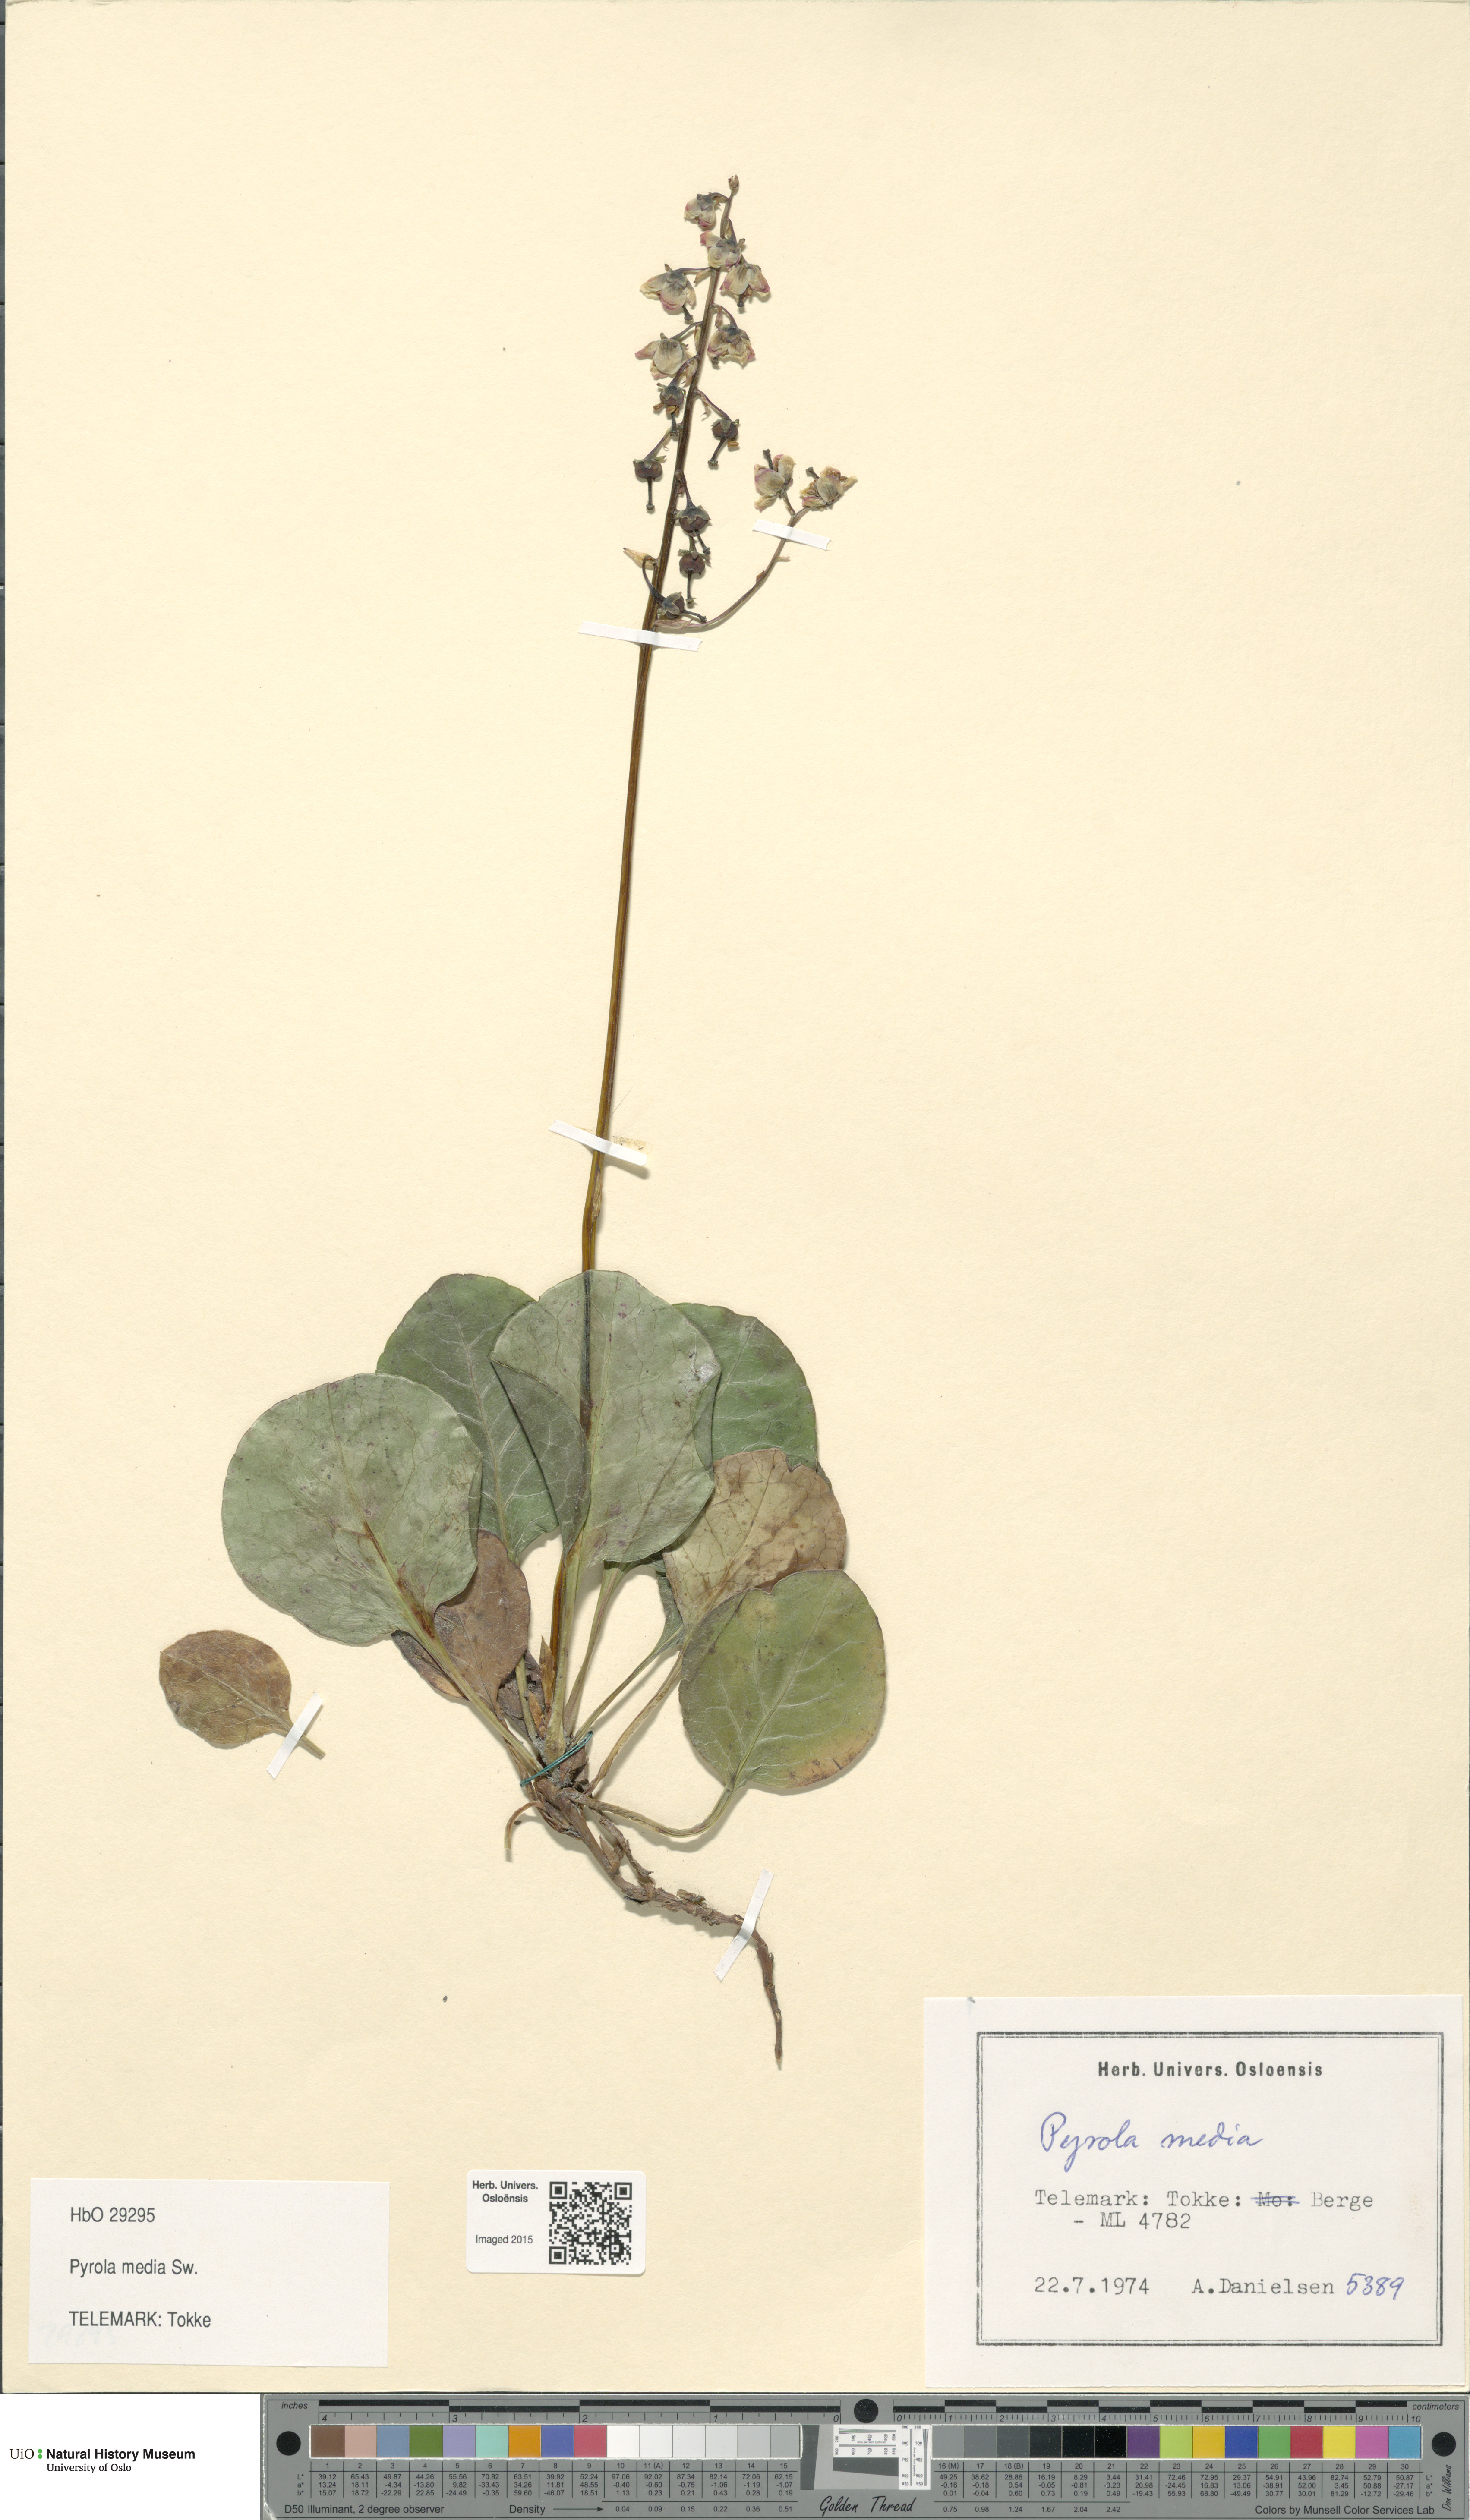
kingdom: Plantae
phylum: Tracheophyta
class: Magnoliopsida
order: Ericales
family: Ericaceae
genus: Pyrola
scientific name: Pyrola media
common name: Intermediate wintergreen
